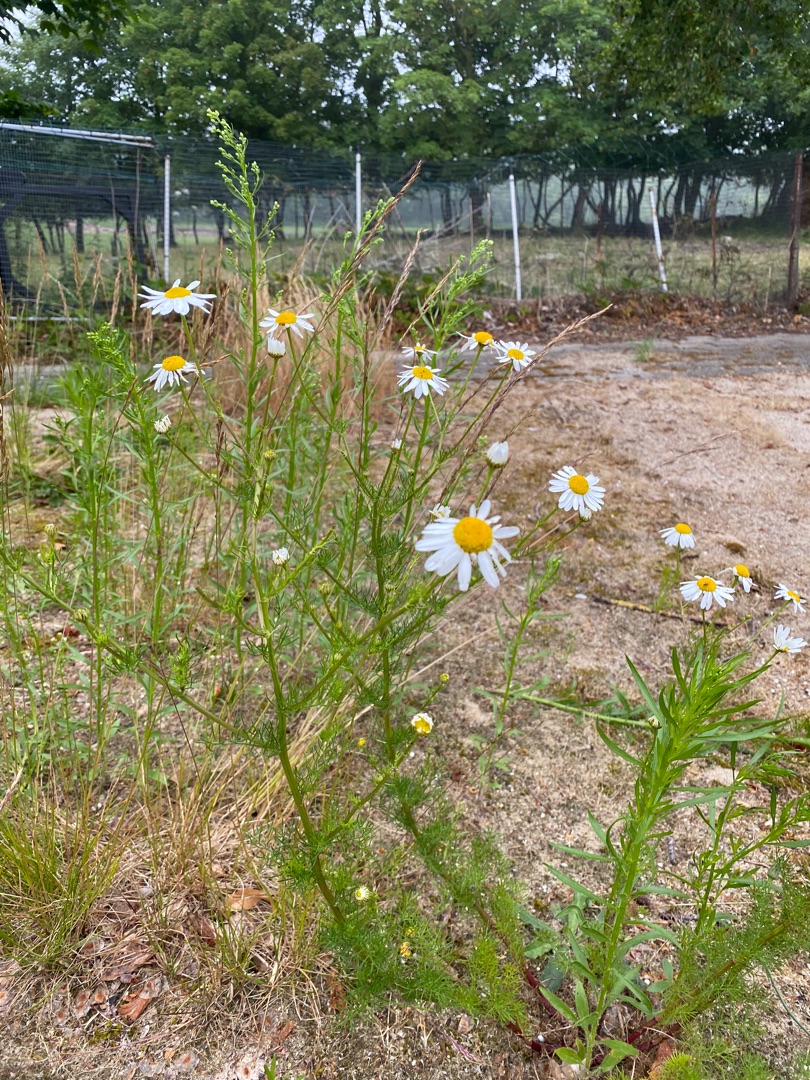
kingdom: Plantae
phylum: Tracheophyta
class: Magnoliopsida
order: Asterales
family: Asteraceae
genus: Tripleurospermum
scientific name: Tripleurospermum inodorum
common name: Lugtløs kamille
